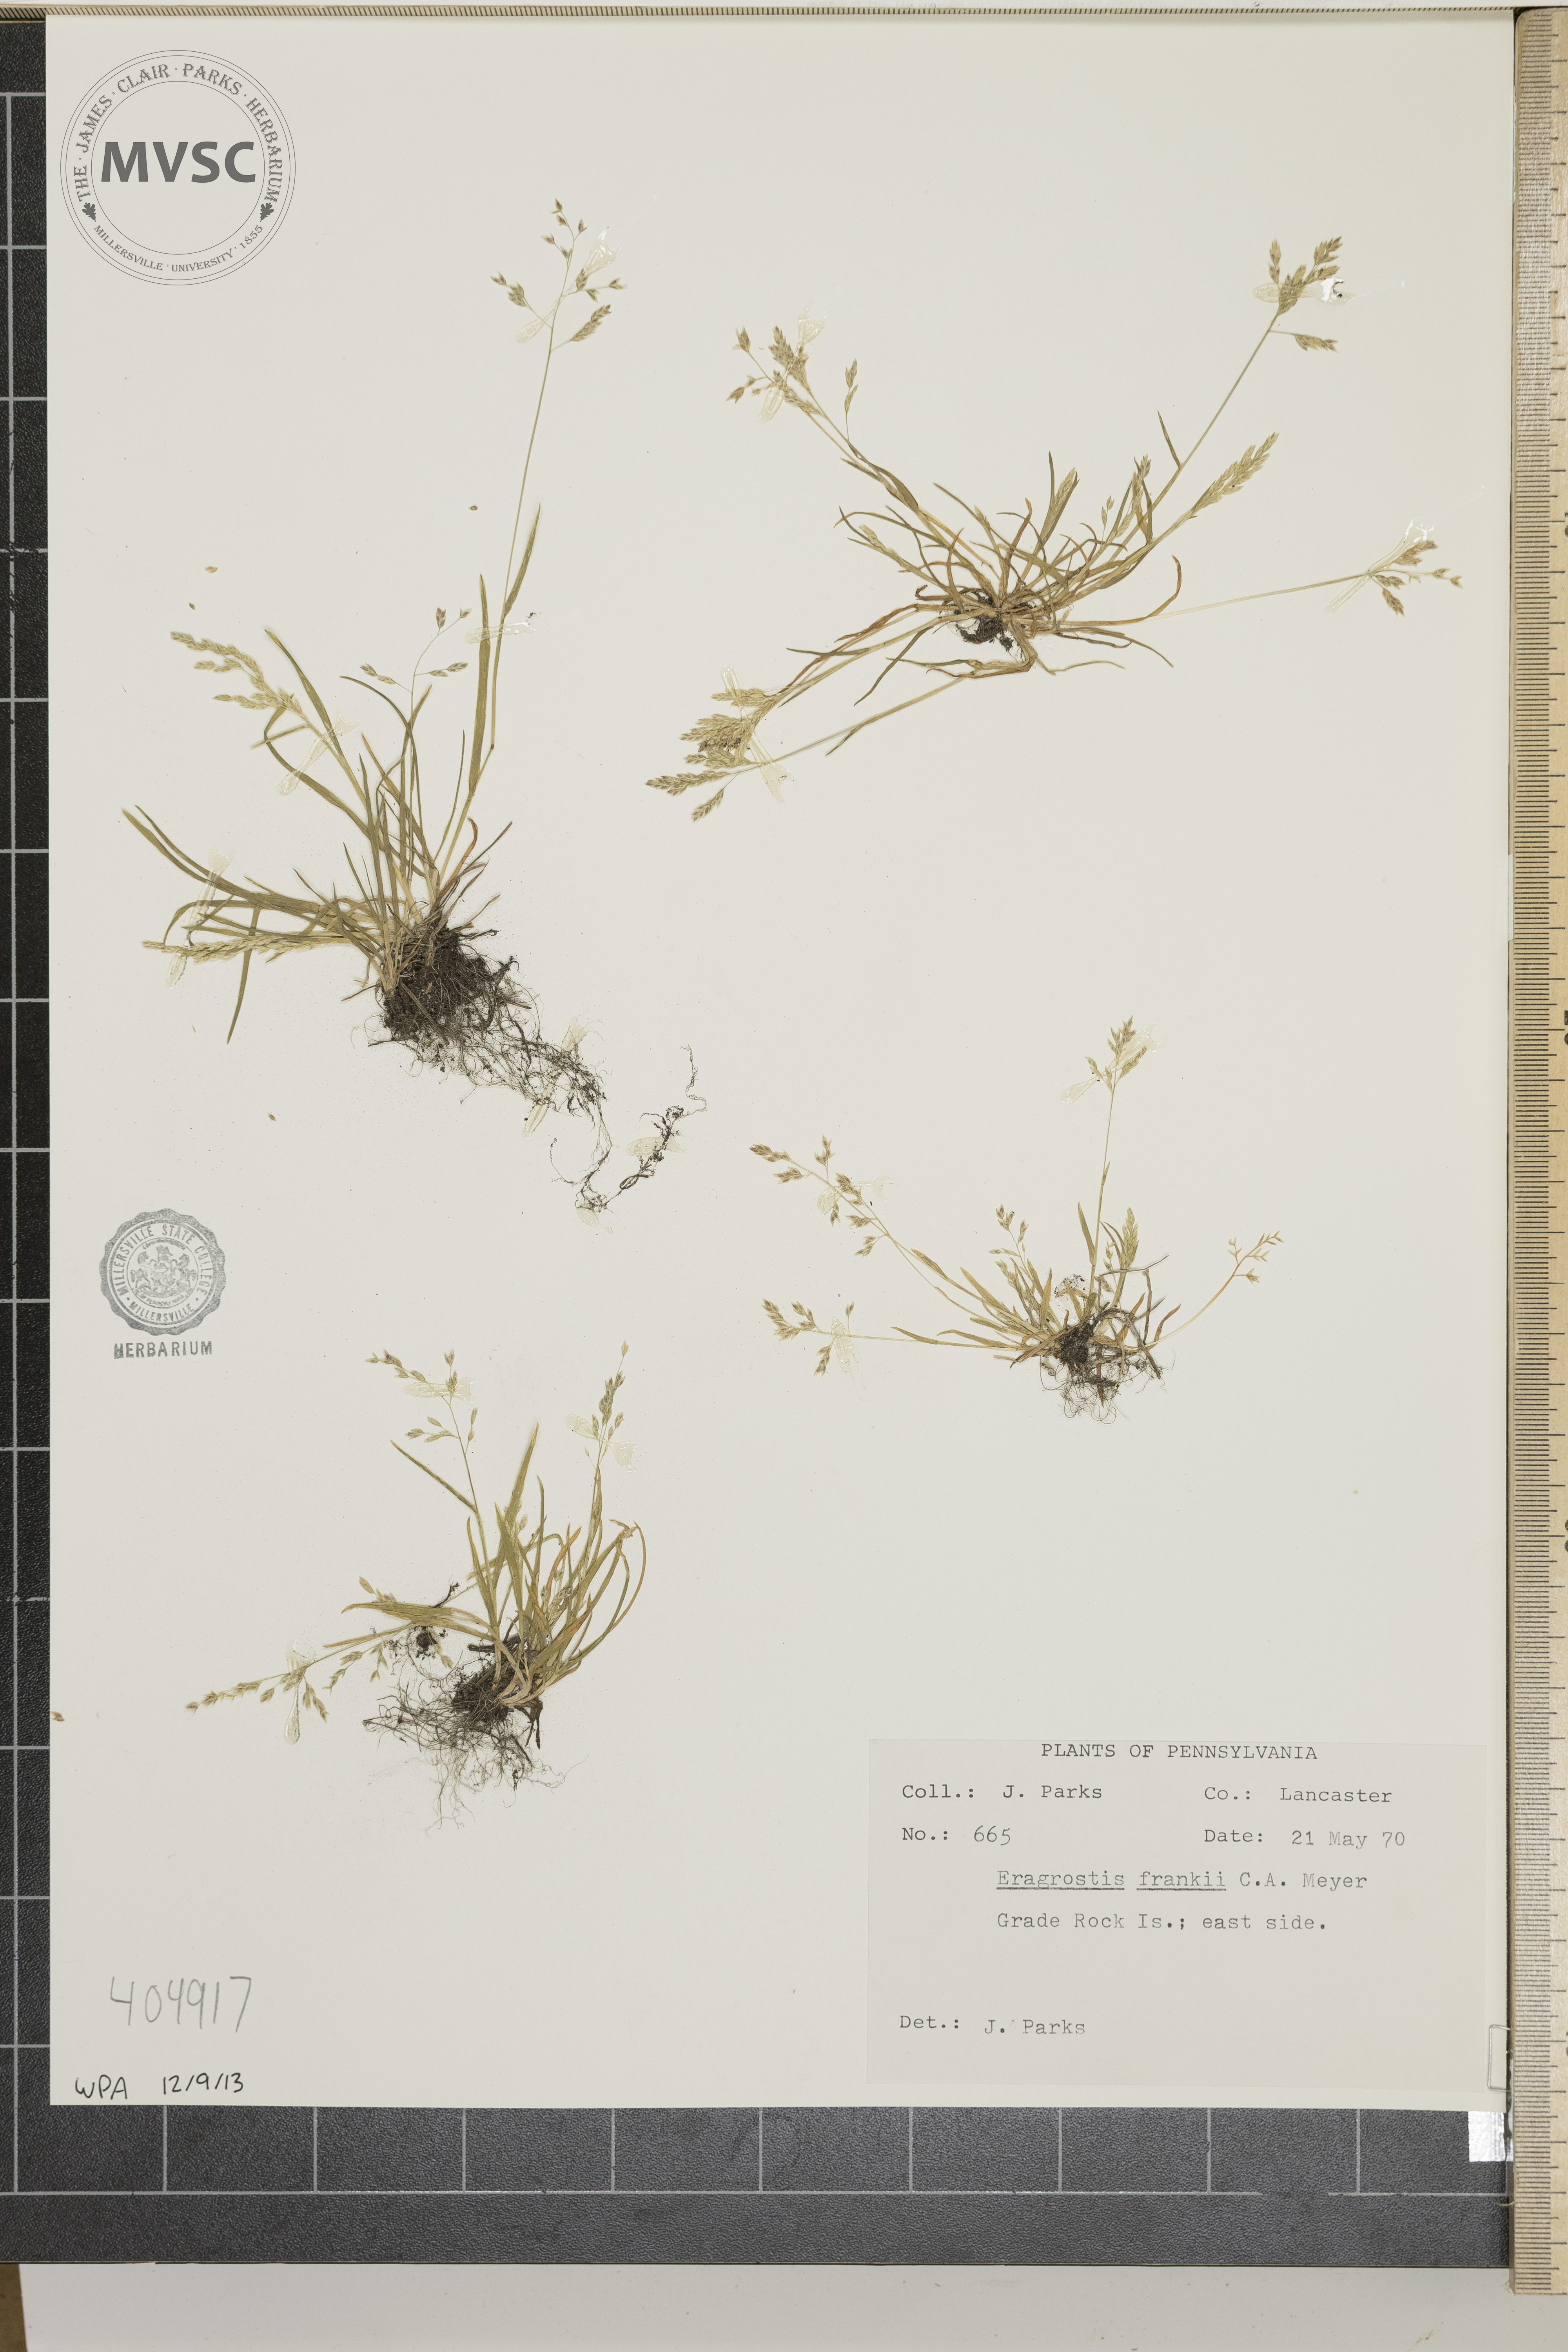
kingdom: Plantae
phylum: Tracheophyta
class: Liliopsida
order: Poales
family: Poaceae
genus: Eragrostis
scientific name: Eragrostis frankii
